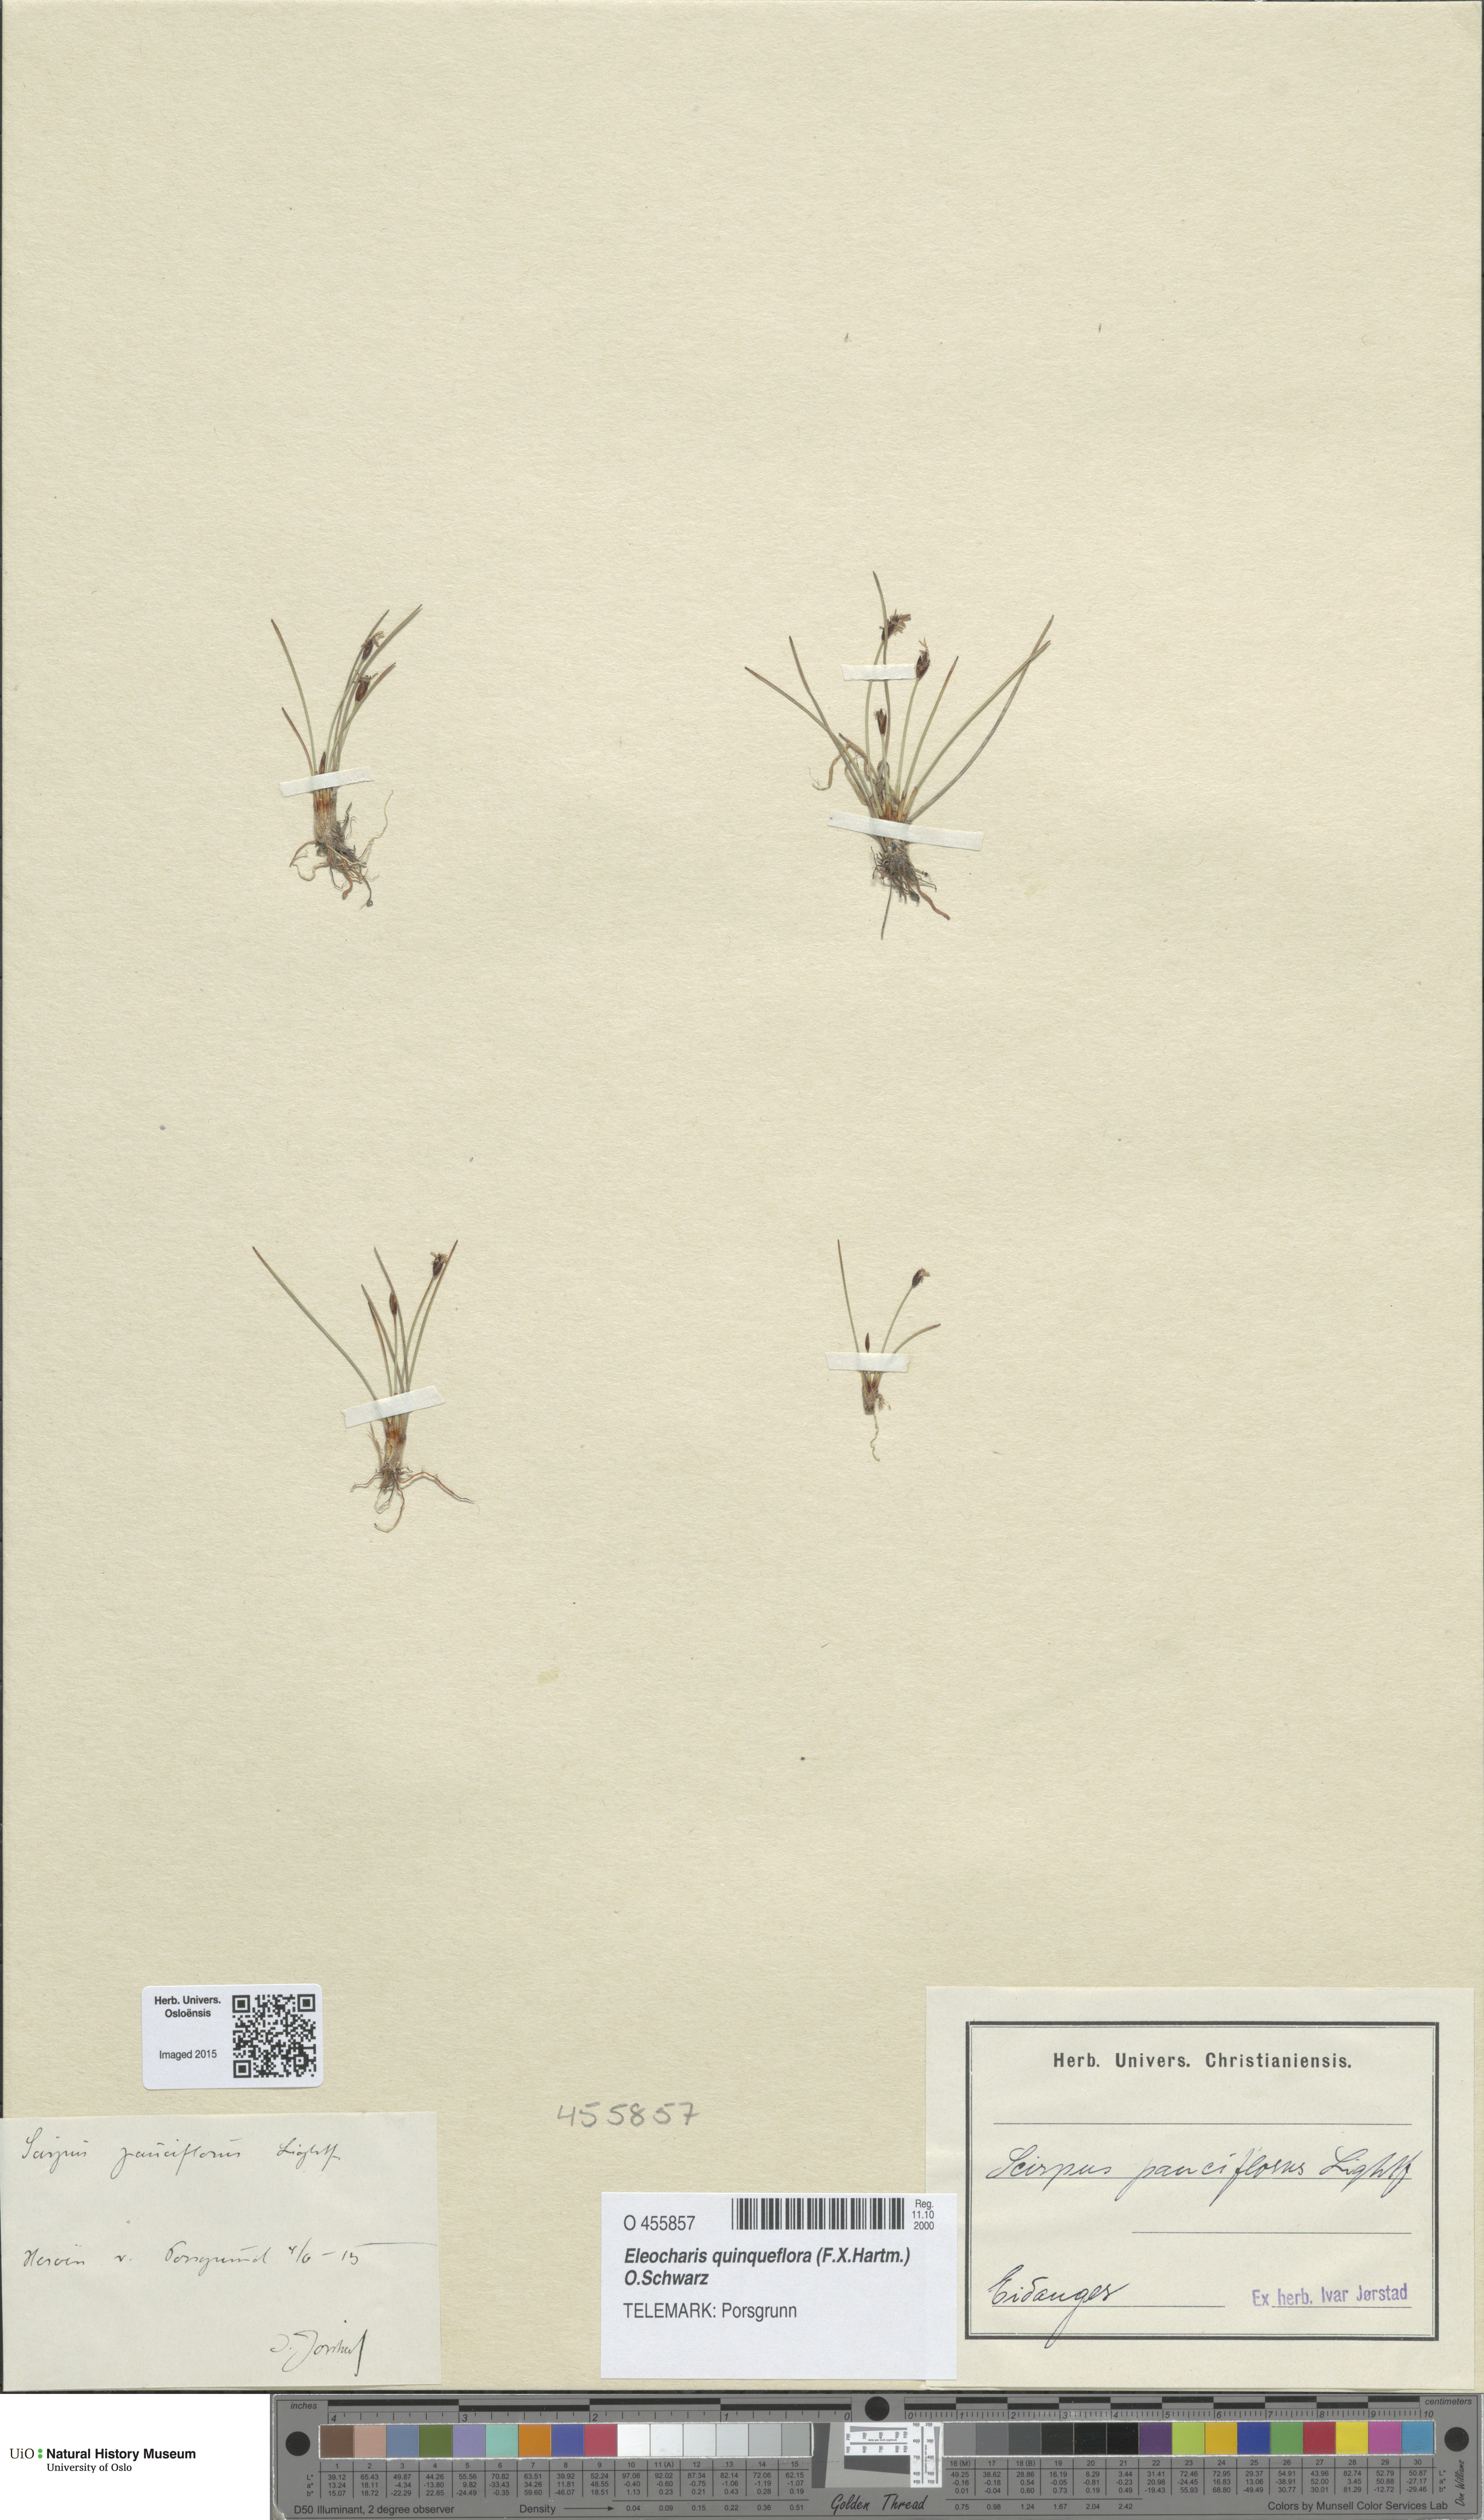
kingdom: Plantae
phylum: Tracheophyta
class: Liliopsida
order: Poales
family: Cyperaceae
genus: Eleocharis
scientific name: Eleocharis quinqueflora
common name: Few-flowered spike-rush
